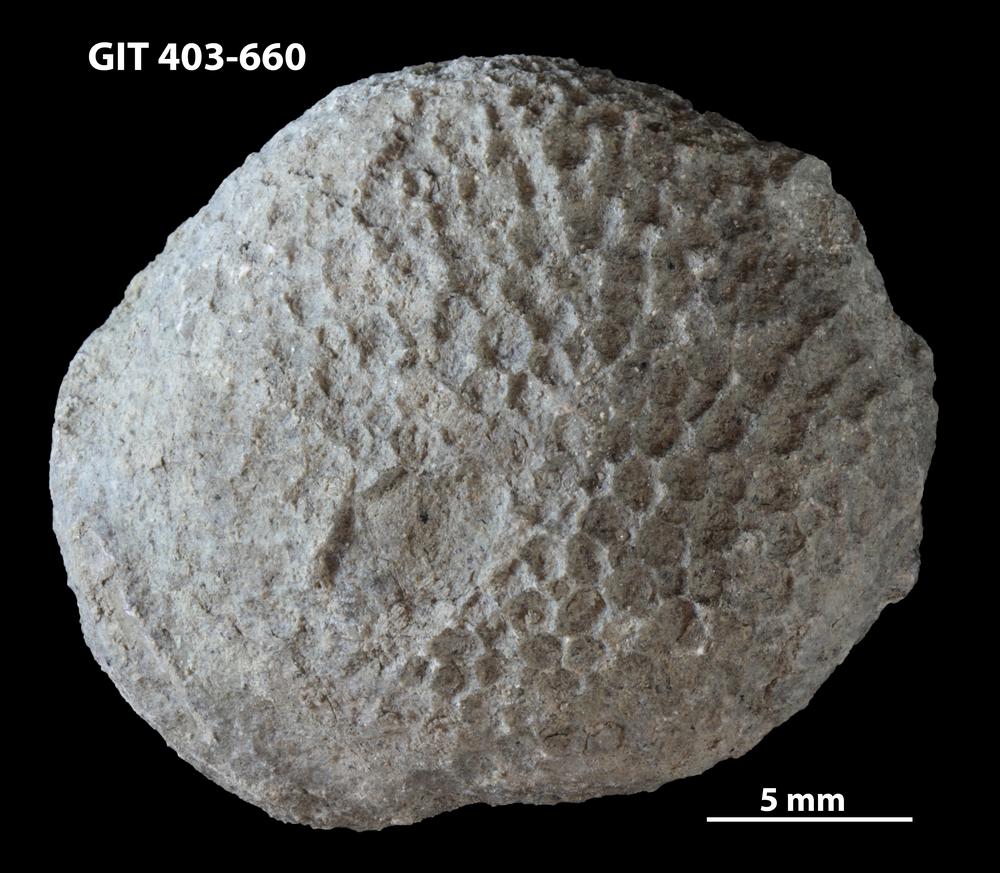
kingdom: Animalia
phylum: Cnidaria
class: Anthozoa
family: Favositidae
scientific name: Favositidae
